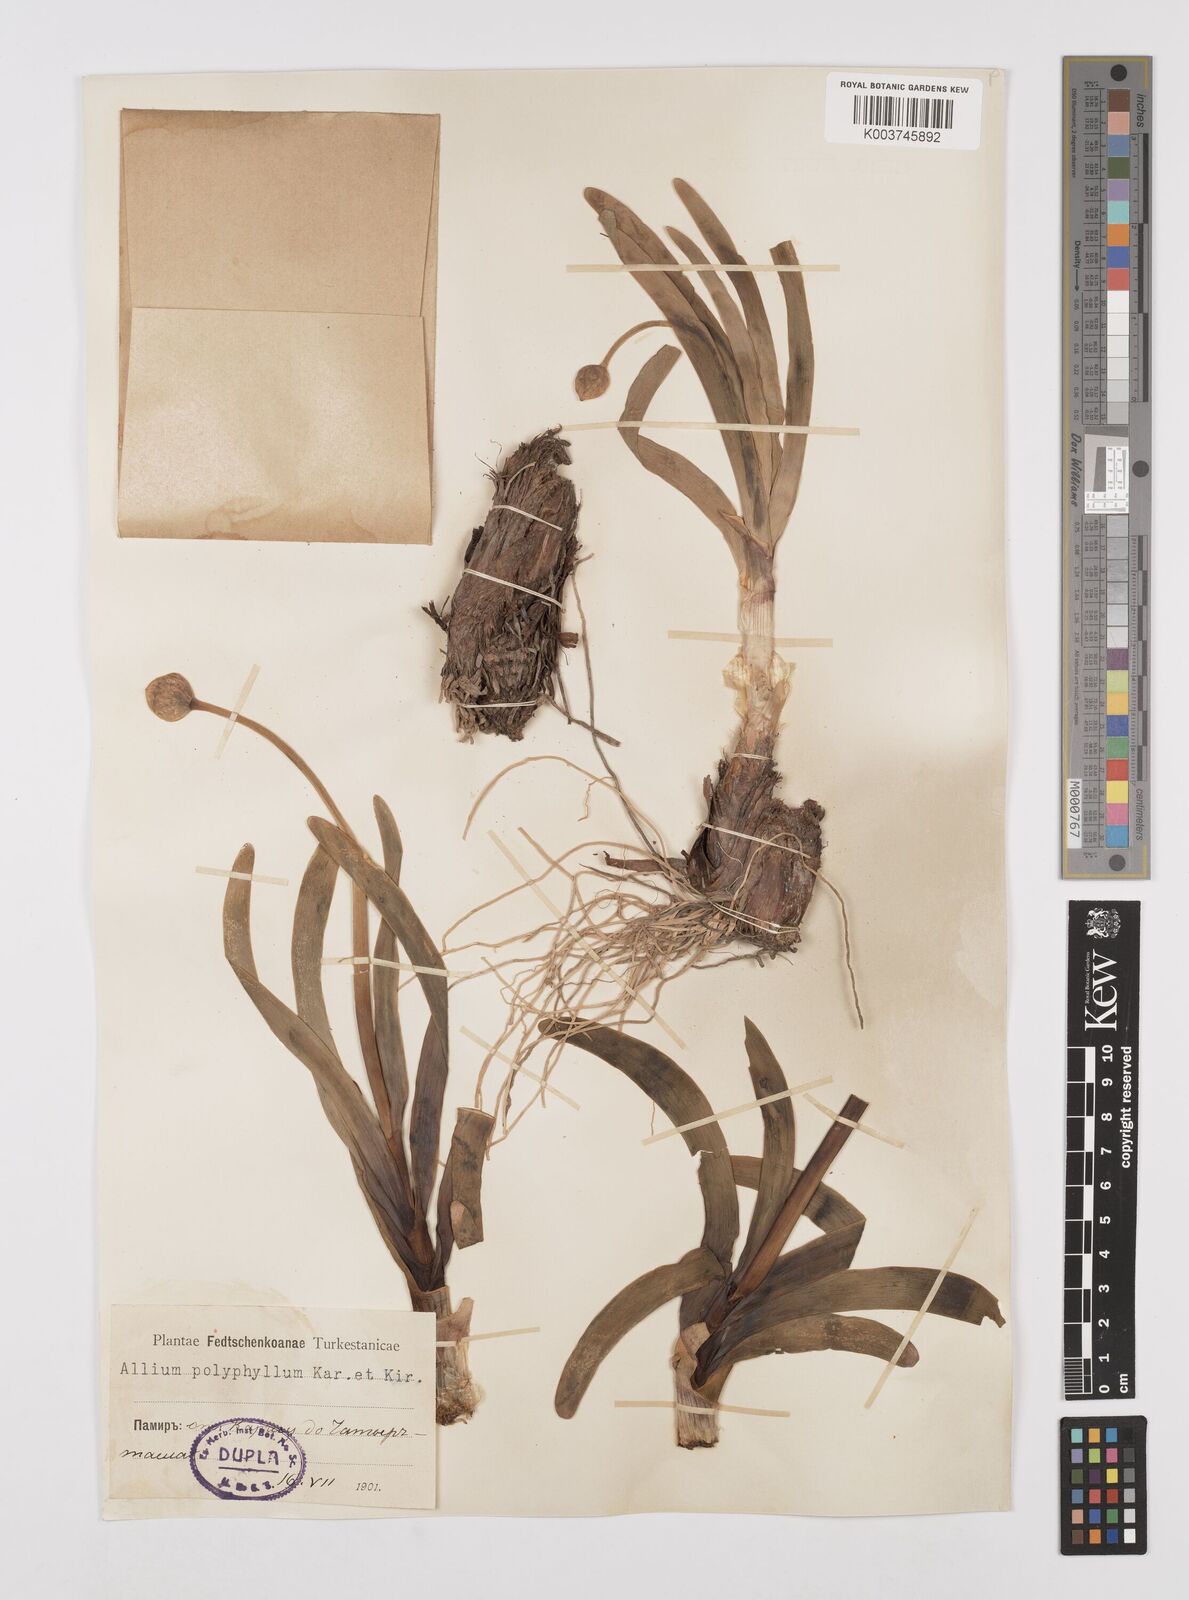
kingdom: Plantae
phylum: Tracheophyta
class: Liliopsida
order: Asparagales
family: Amaryllidaceae
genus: Allium
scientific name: Allium carolinianum
